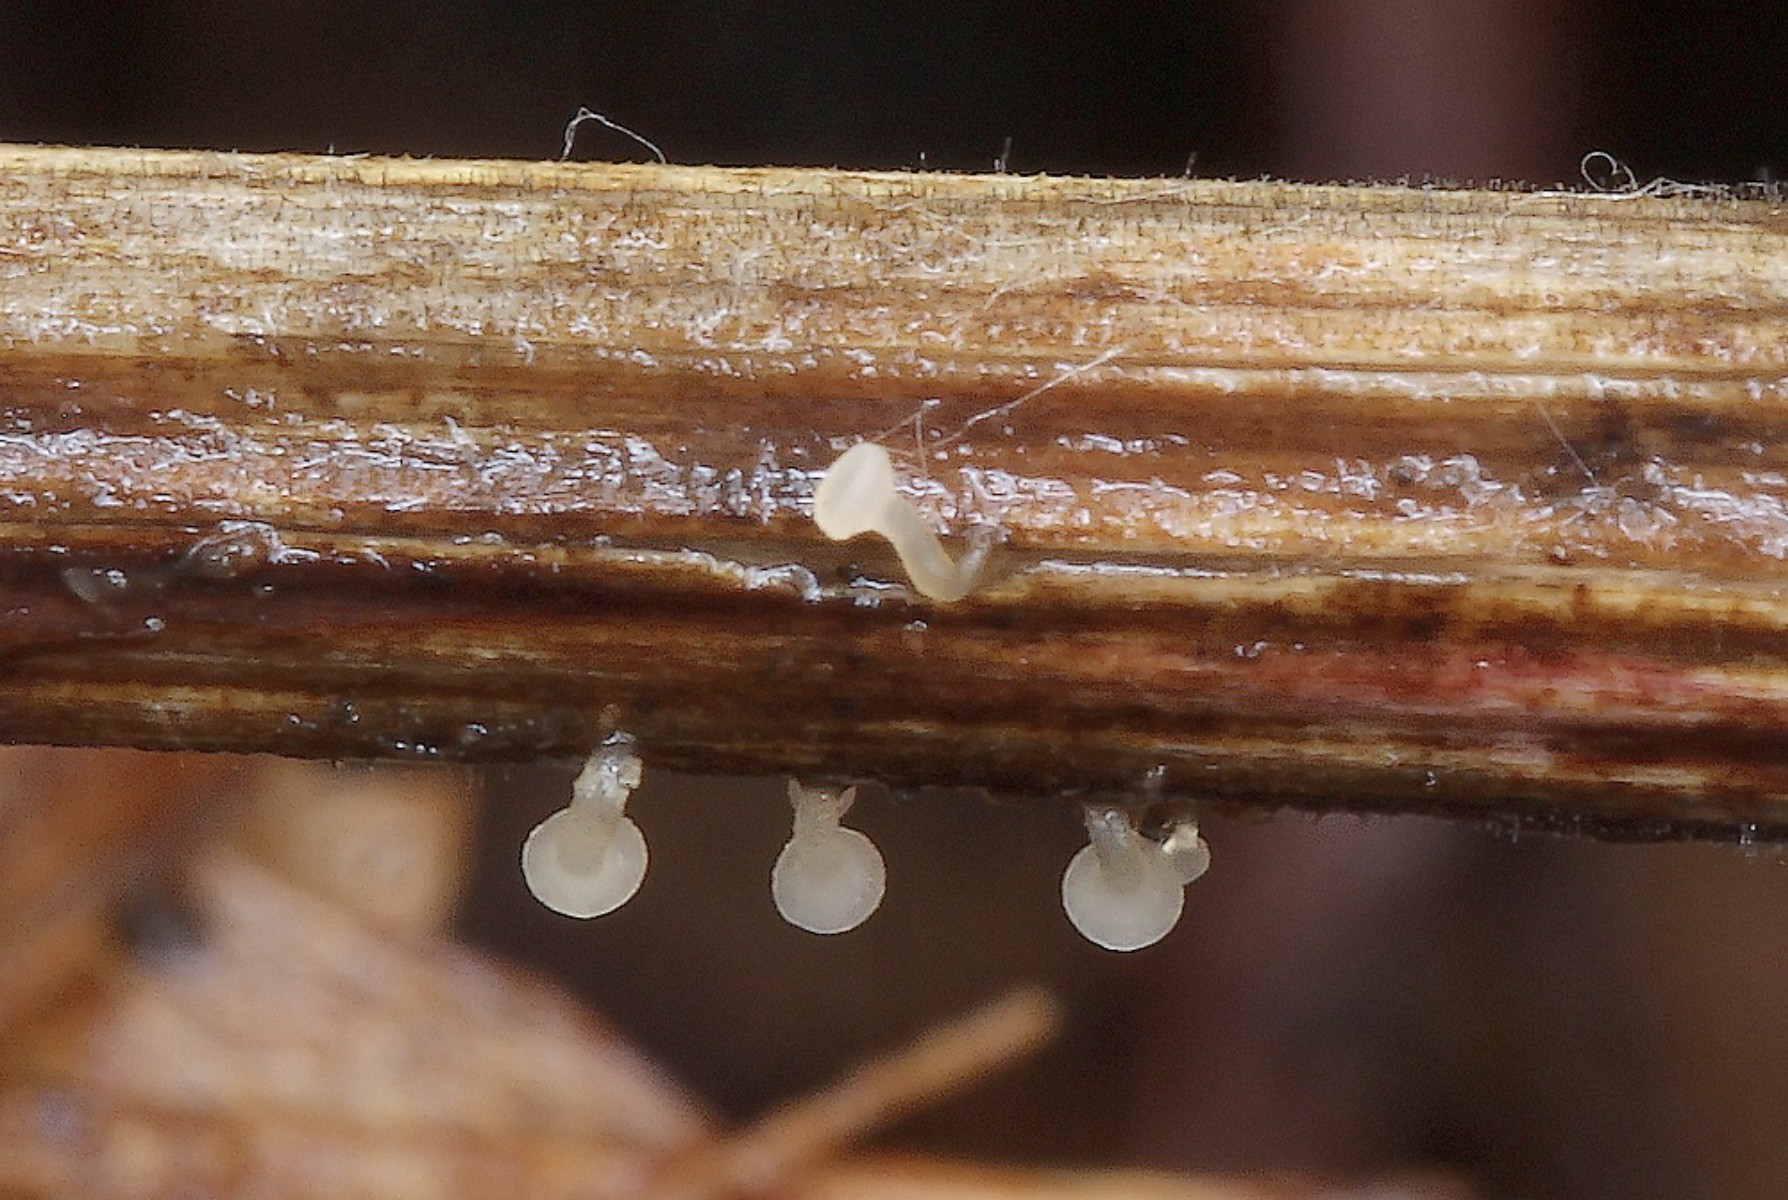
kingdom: Fungi
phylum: Ascomycota
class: Leotiomycetes
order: Helotiales
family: Helotiaceae
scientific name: Helotiaceae
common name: stilkskivefamilien
